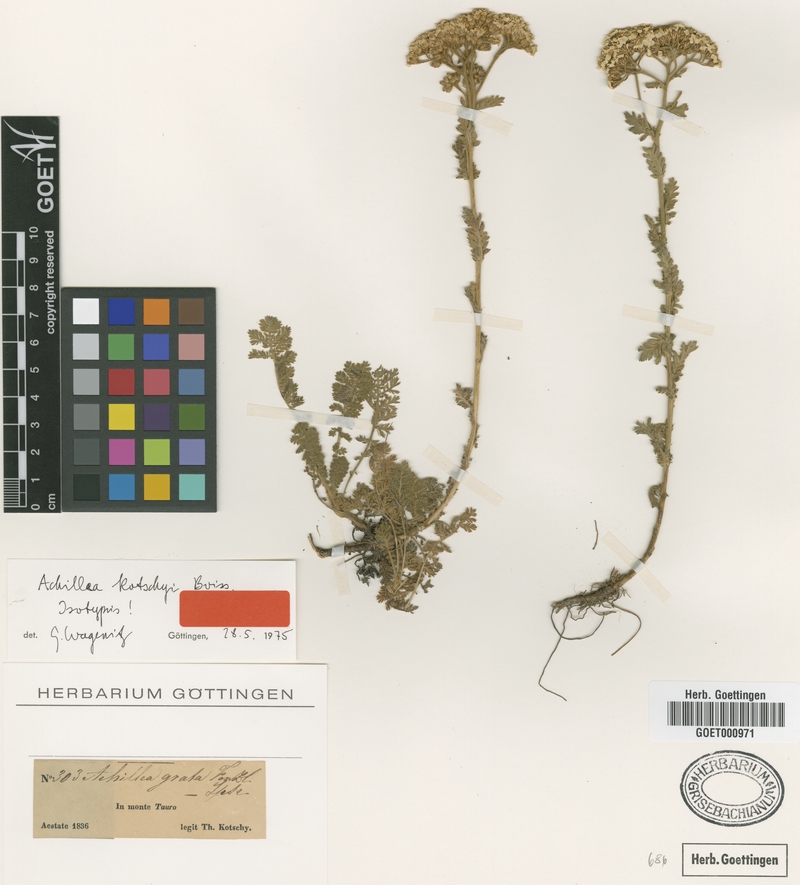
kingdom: Plantae
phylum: Tracheophyta
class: Magnoliopsida
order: Asterales
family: Asteraceae
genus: Achillea
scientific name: Achillea kotschyi
